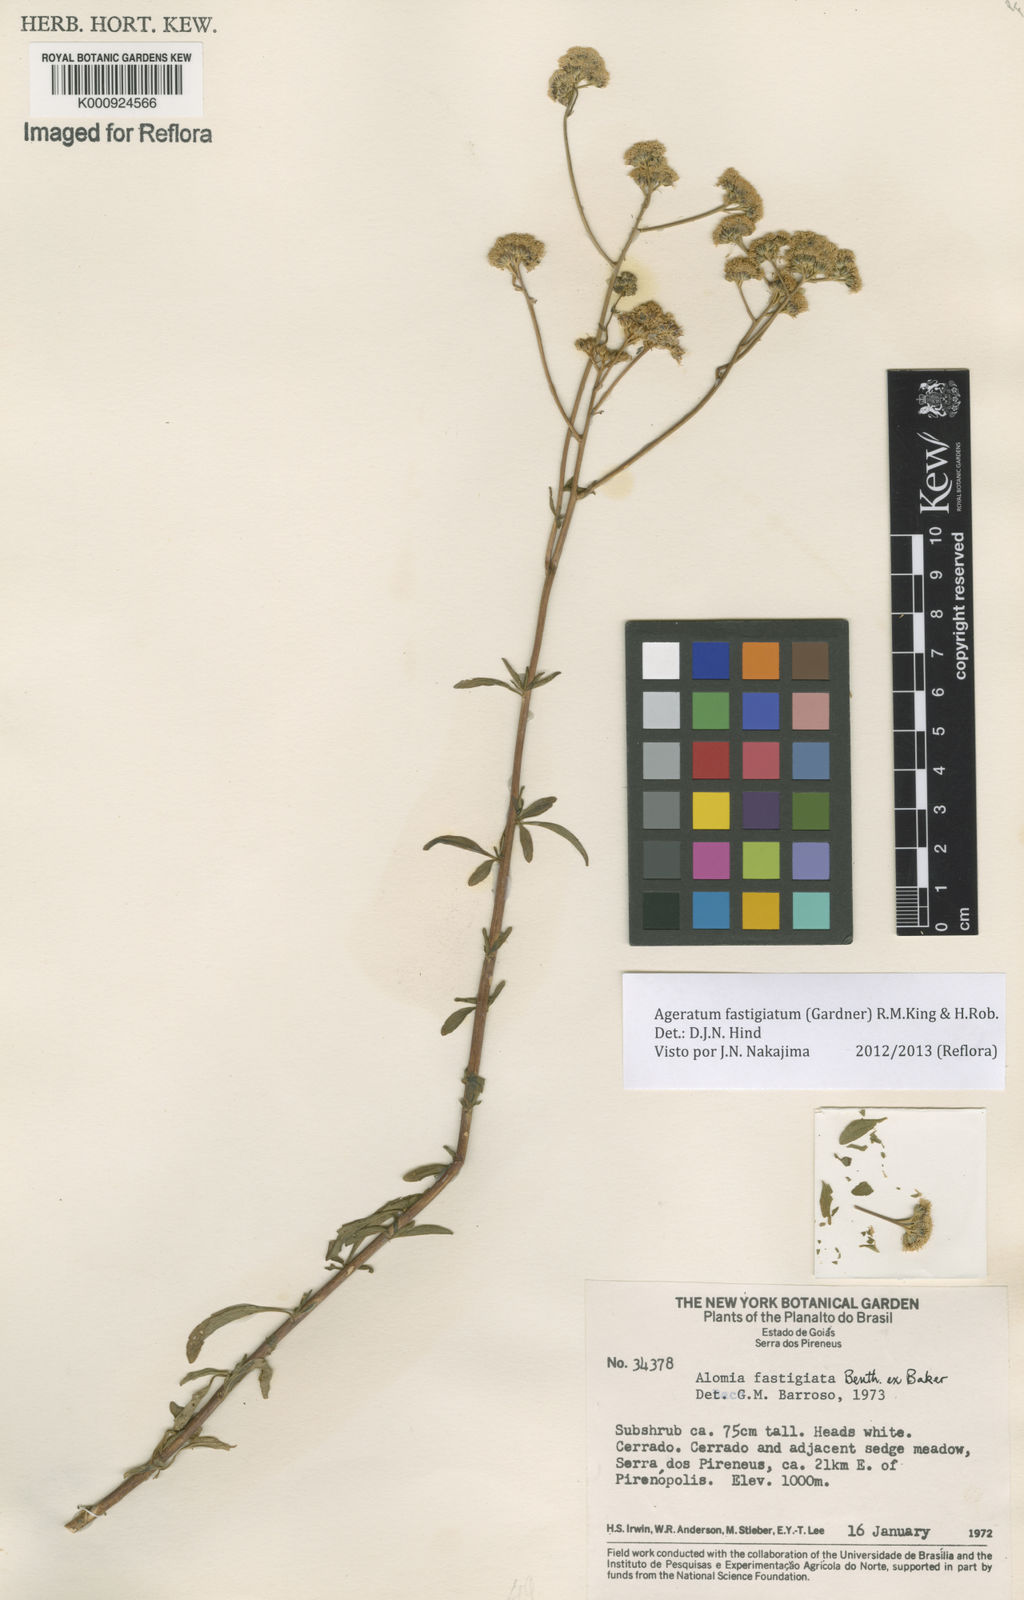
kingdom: Plantae
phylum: Tracheophyta
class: Magnoliopsida
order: Asterales
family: Asteraceae
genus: Ageratum
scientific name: Ageratum fastigiatum
